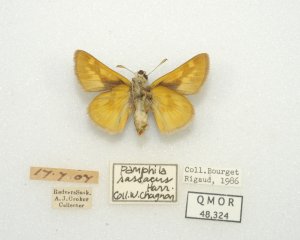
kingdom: Animalia
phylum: Arthropoda
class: Insecta
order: Lepidoptera
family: Hesperiidae
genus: Polites
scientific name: Polites
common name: Long Dash Skipper
